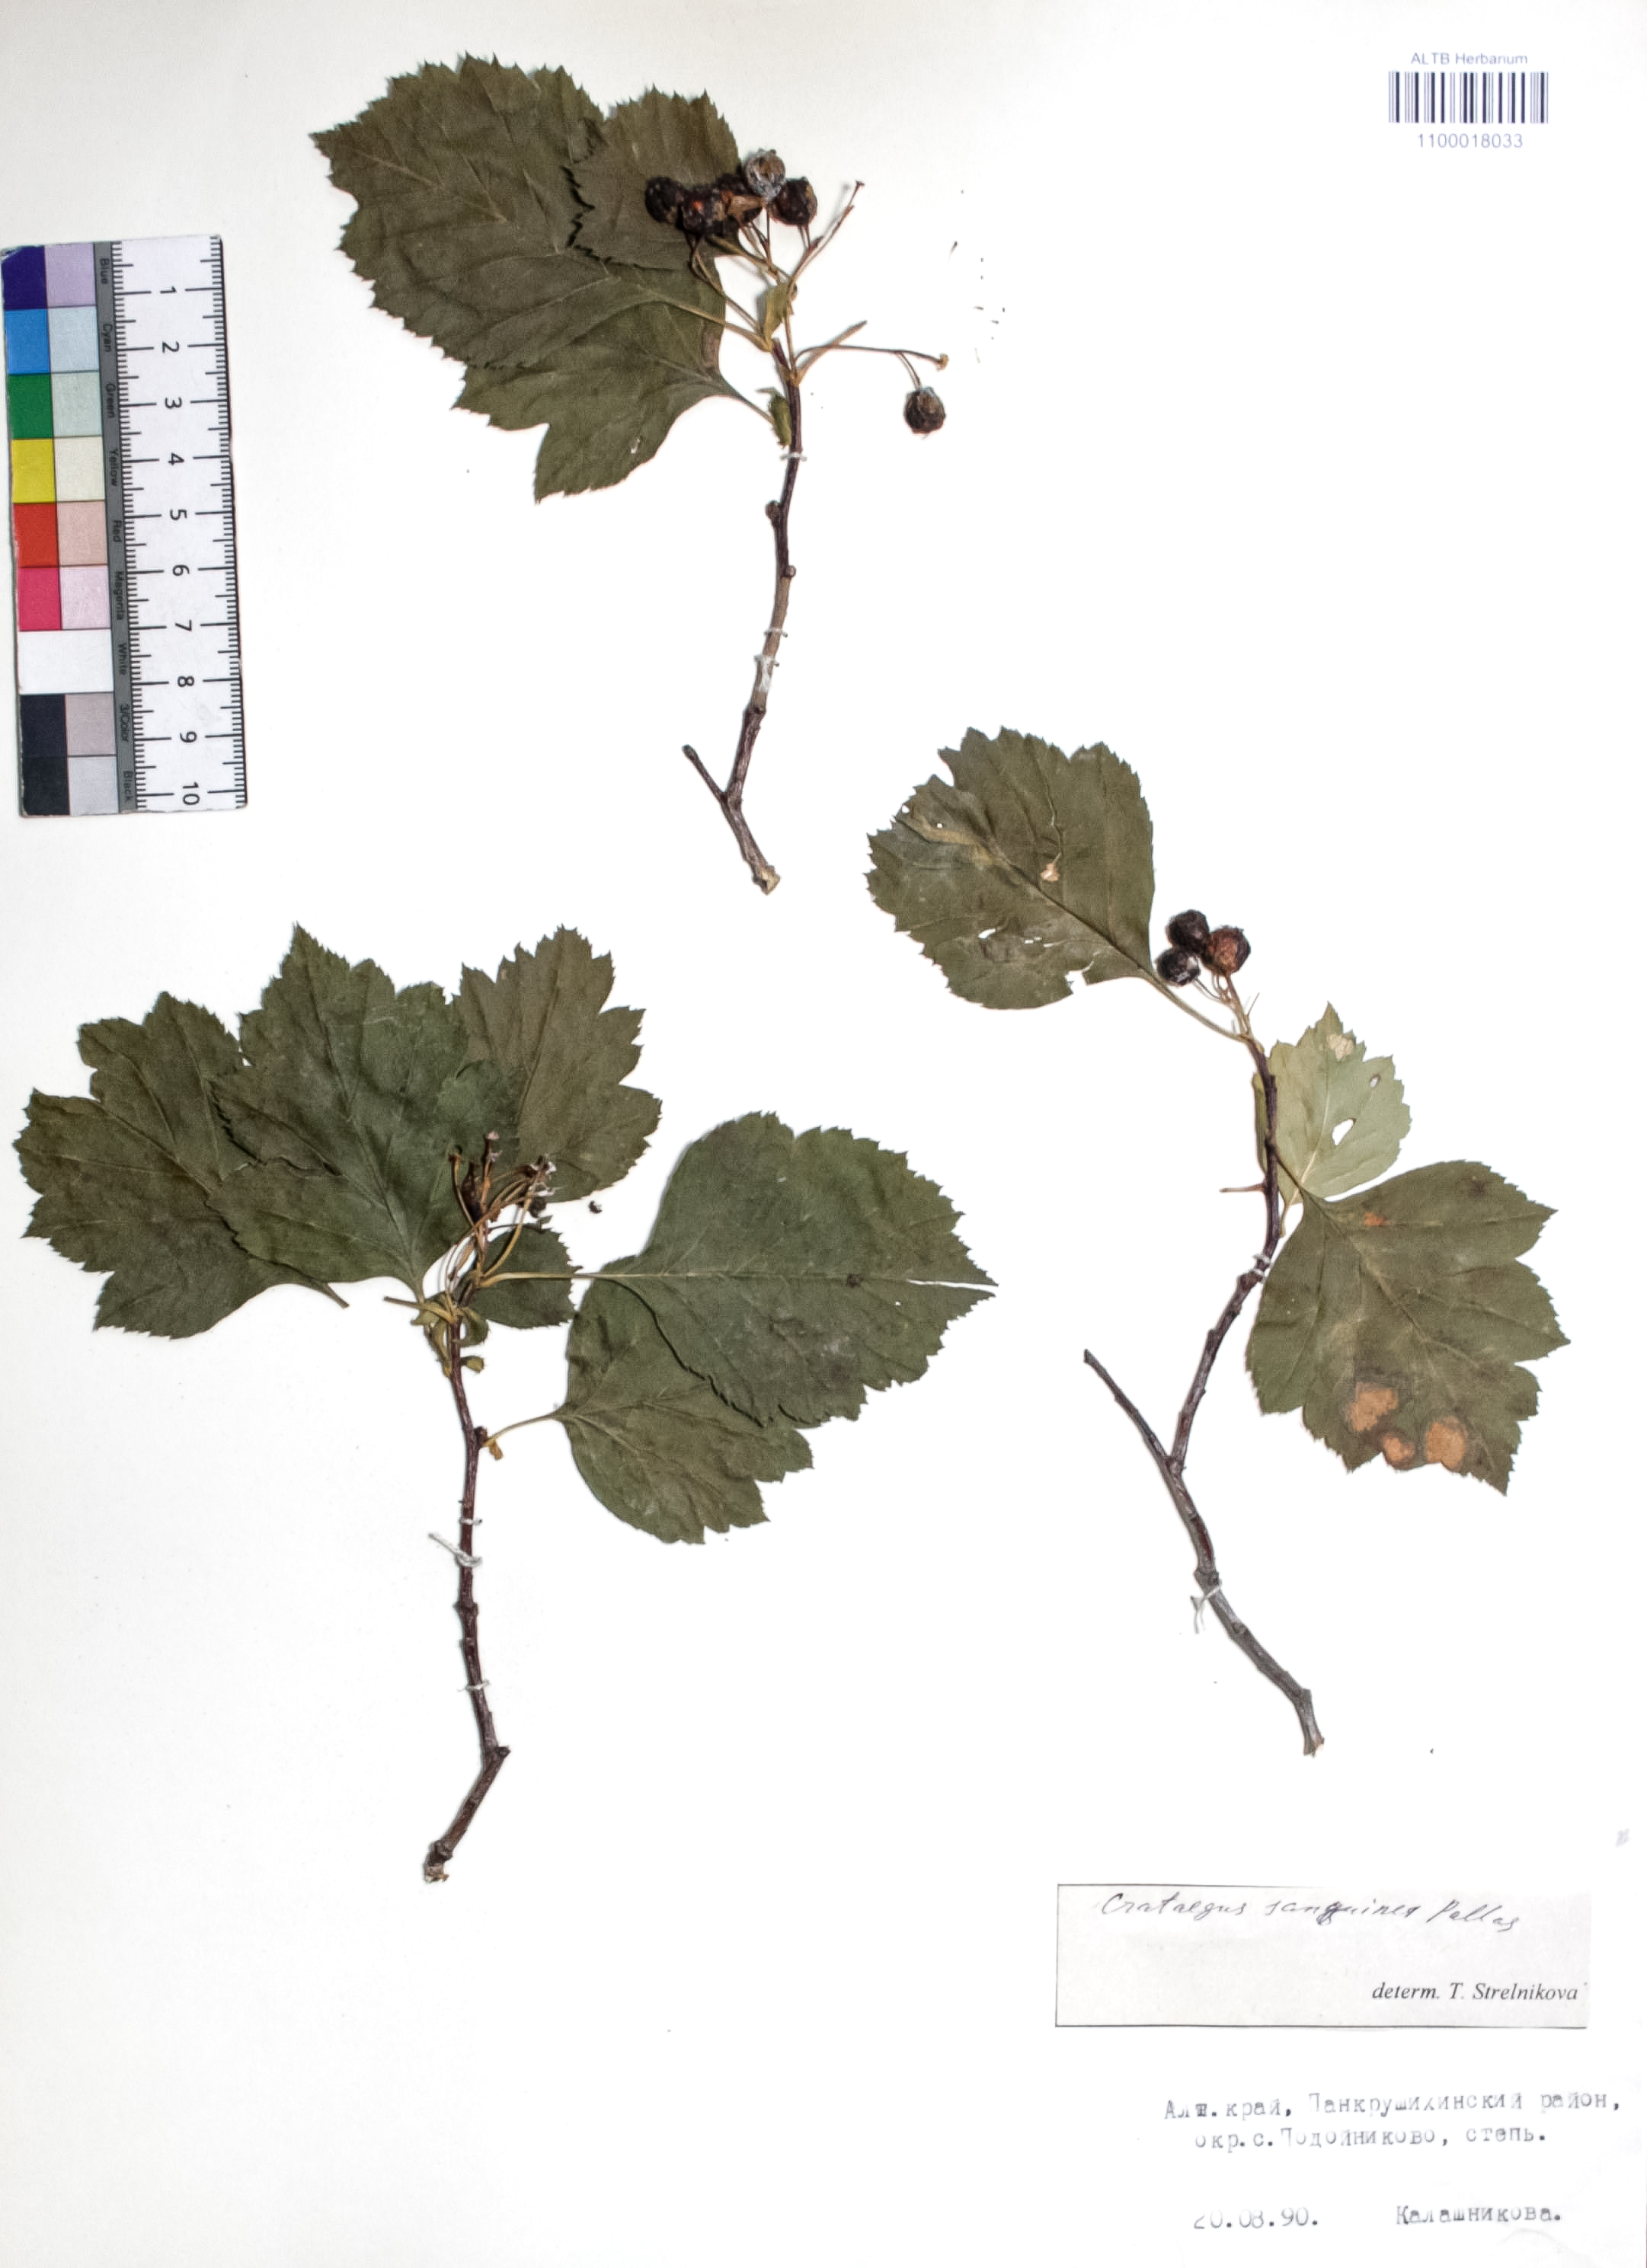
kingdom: Plantae
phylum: Tracheophyta
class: Magnoliopsida
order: Rosales
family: Rosaceae
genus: Crataegus
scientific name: Crataegus sanguinea
